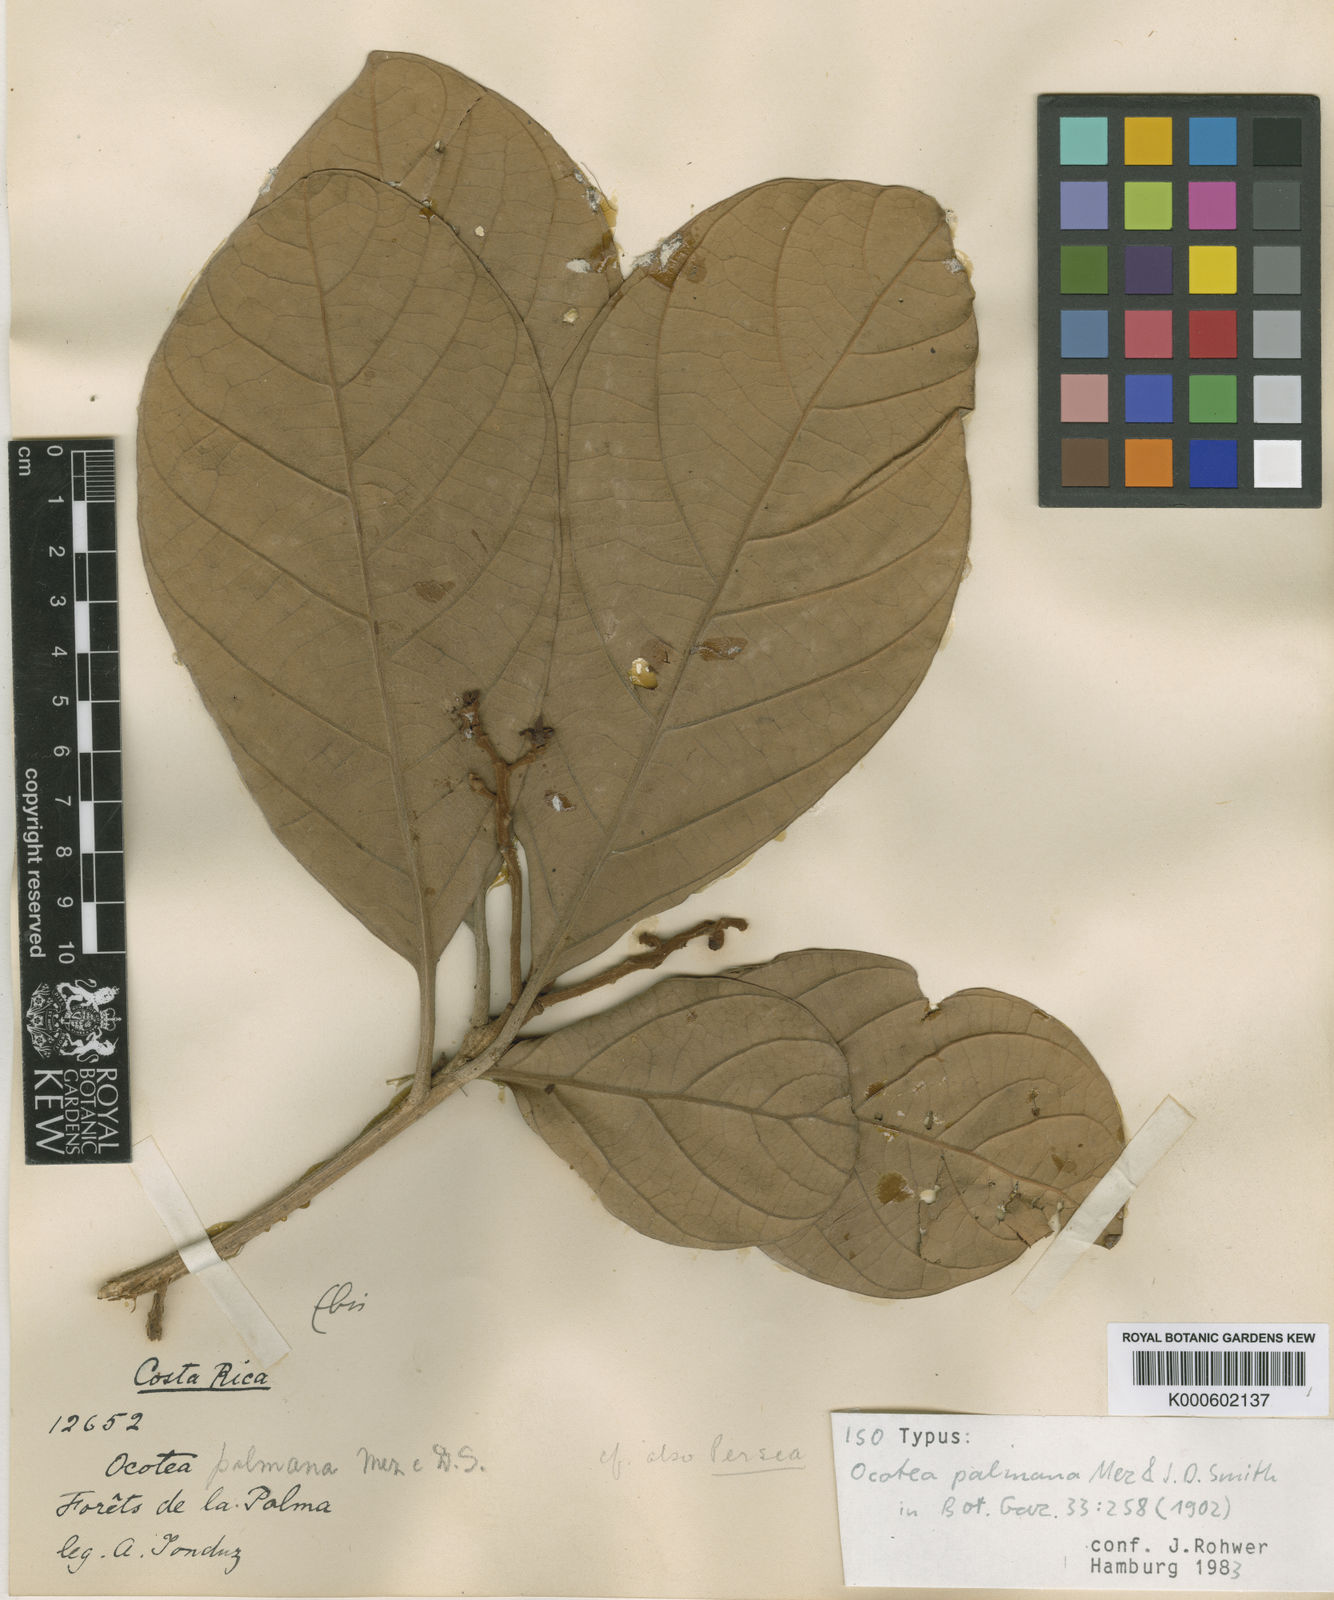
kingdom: Plantae
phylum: Tracheophyta
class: Magnoliopsida
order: Laurales
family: Lauraceae
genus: Pleurothyrium
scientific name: Pleurothyrium palmanum
